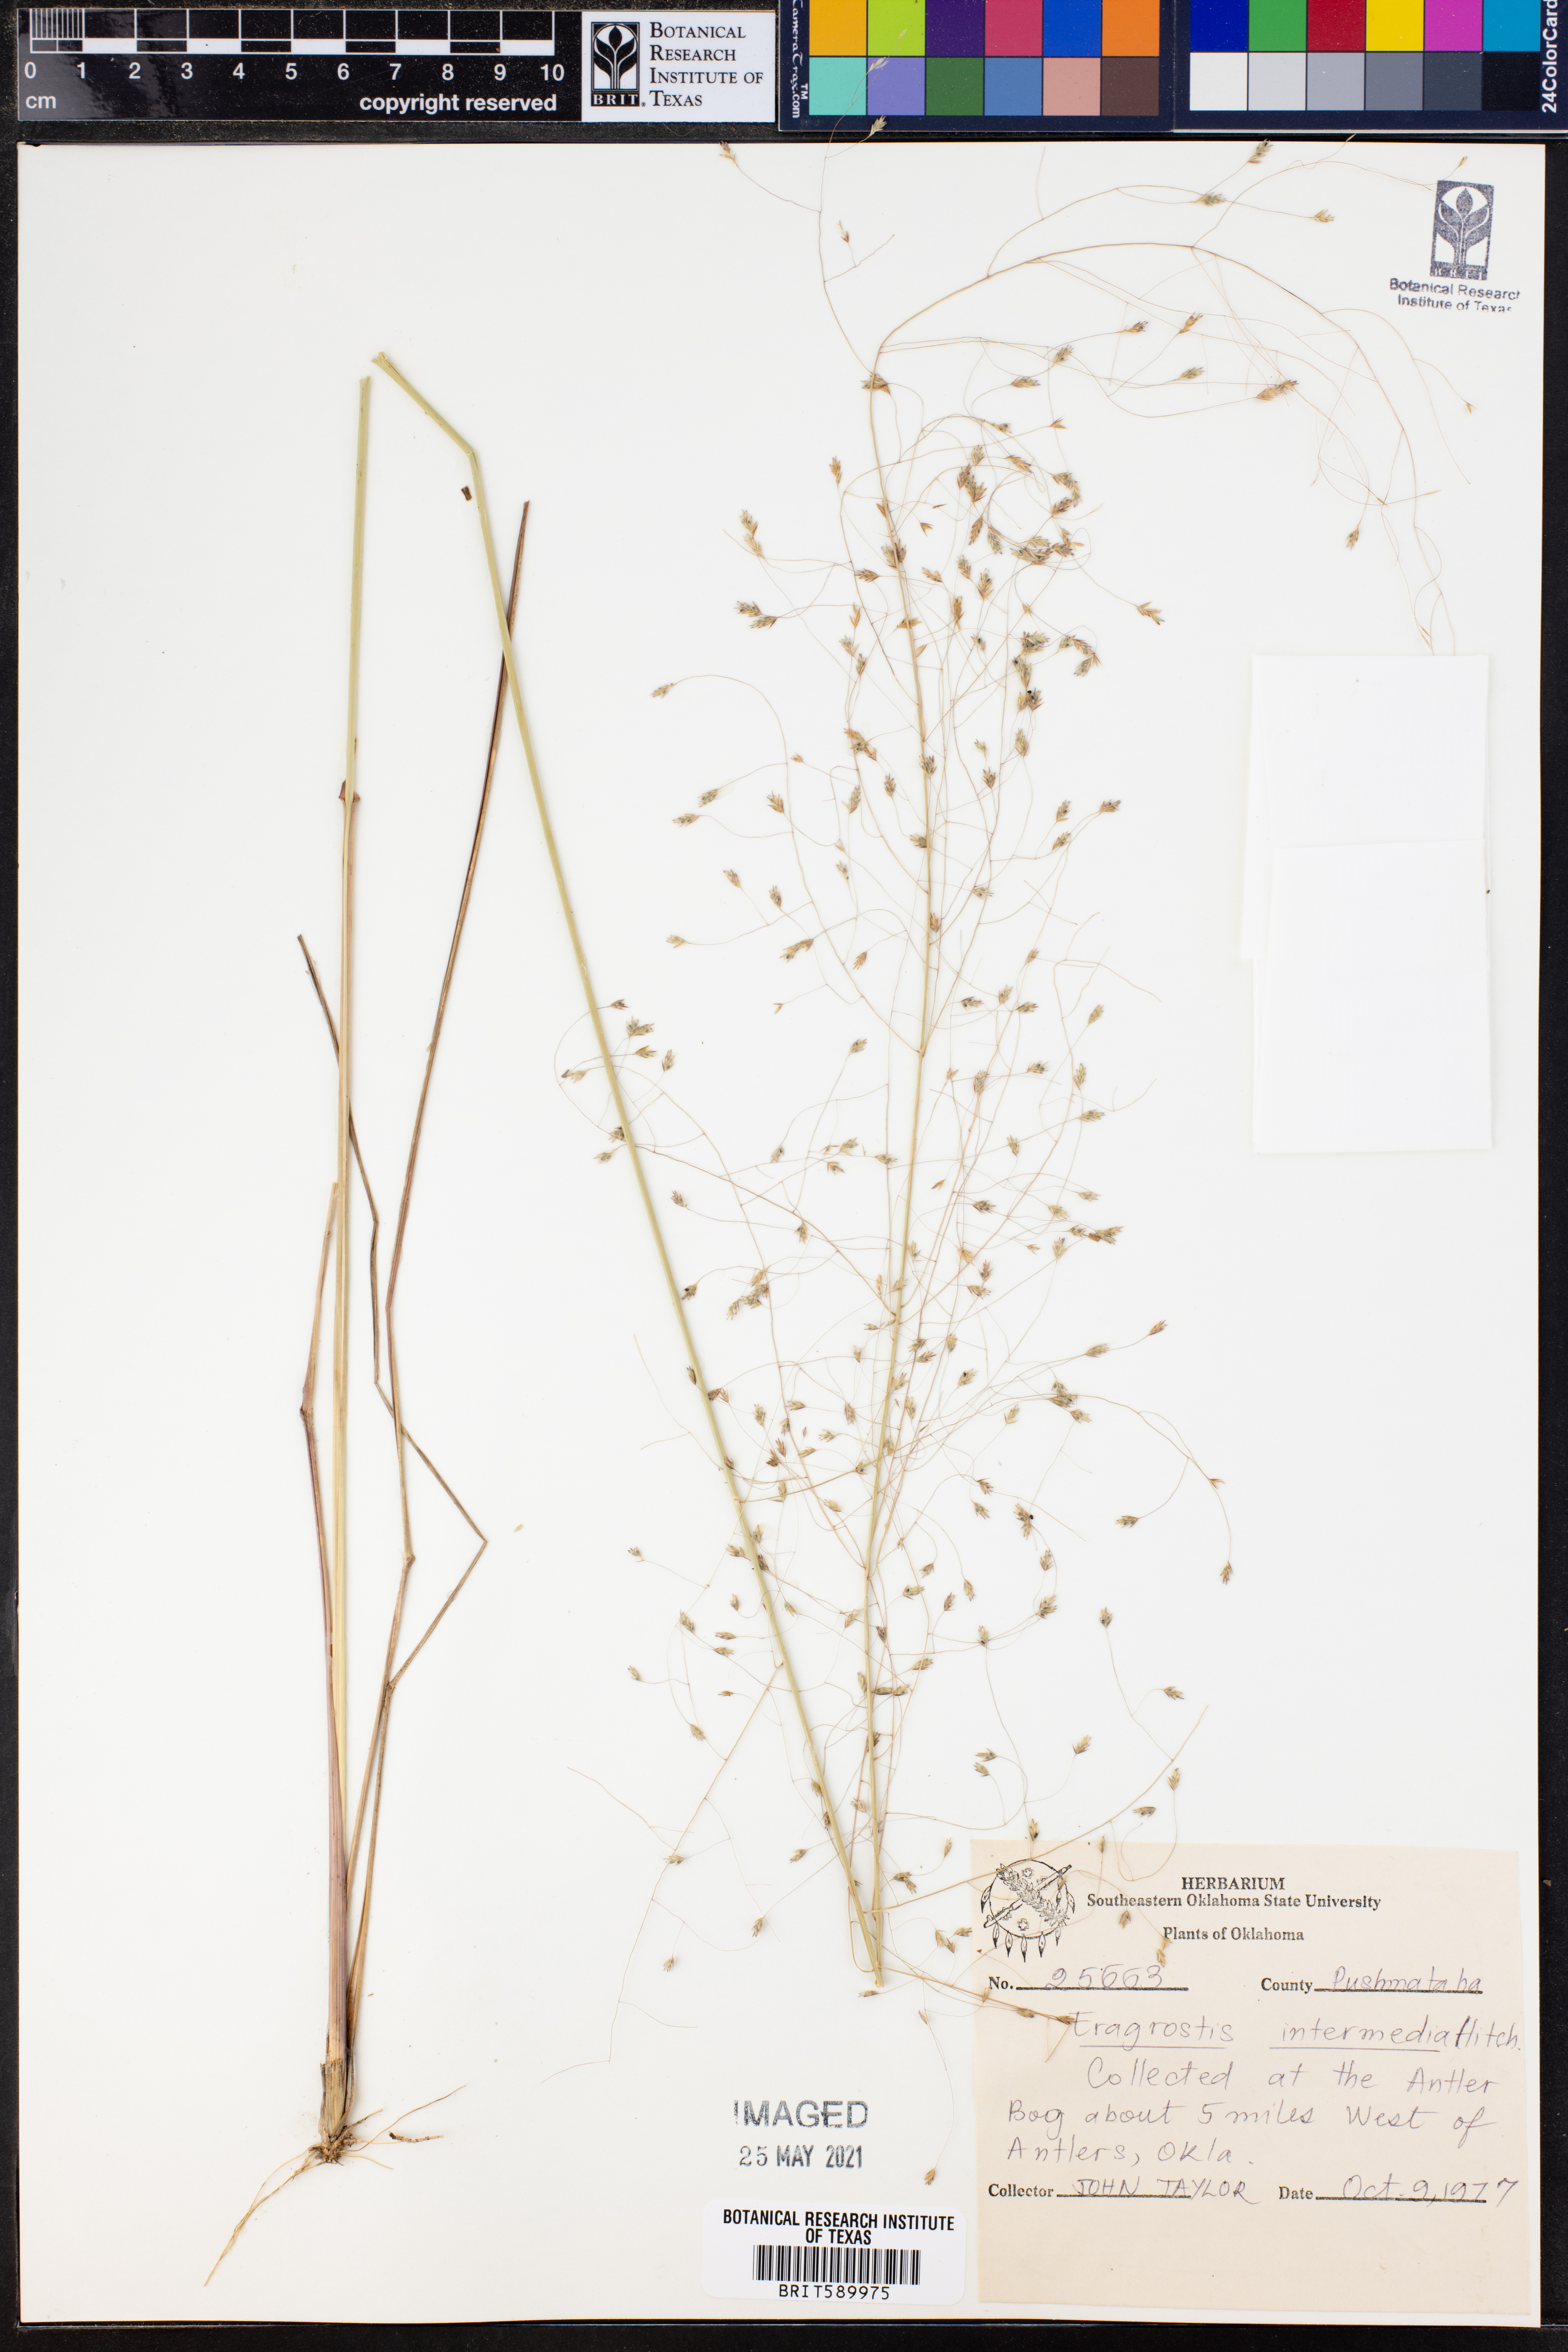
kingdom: Plantae
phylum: Tracheophyta
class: Liliopsida
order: Poales
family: Poaceae
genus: Eragrostis
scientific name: Eragrostis intermedia
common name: Plains love grass
